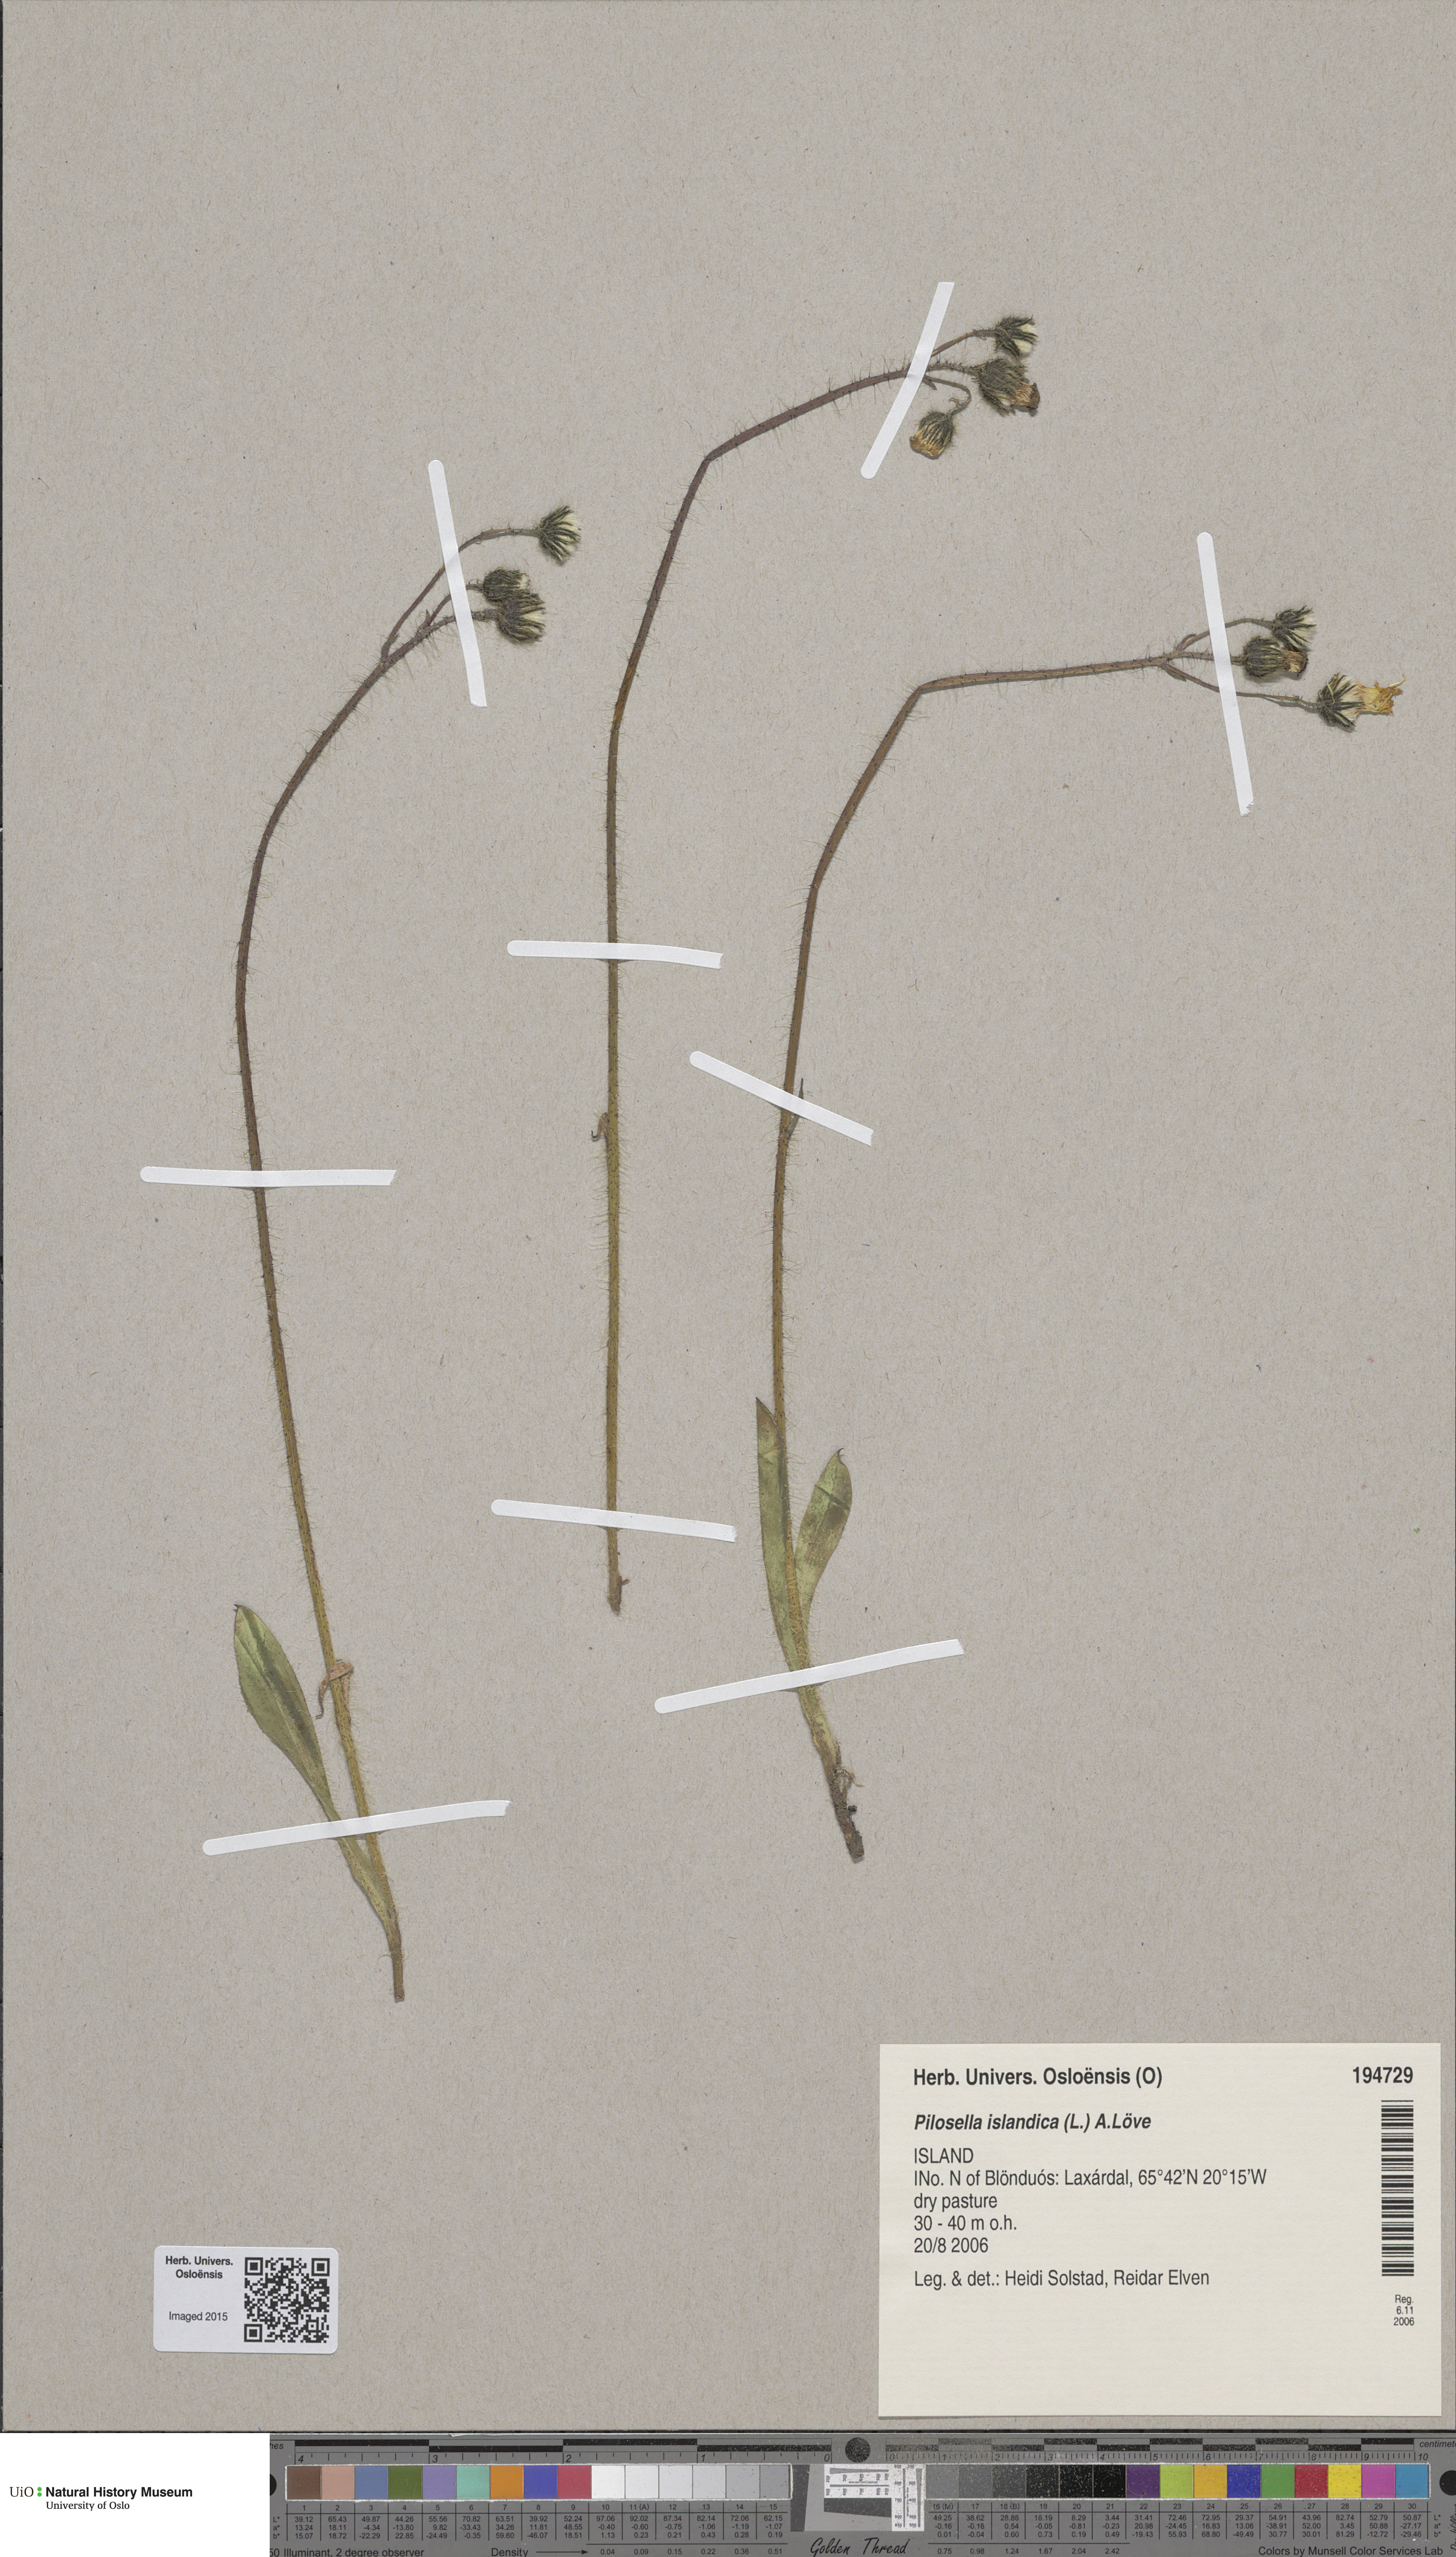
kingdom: Plantae
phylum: Tracheophyta
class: Magnoliopsida
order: Asterales
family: Asteraceae
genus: Pilosella
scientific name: Pilosella floribunda
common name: Glaucous hawkweed
